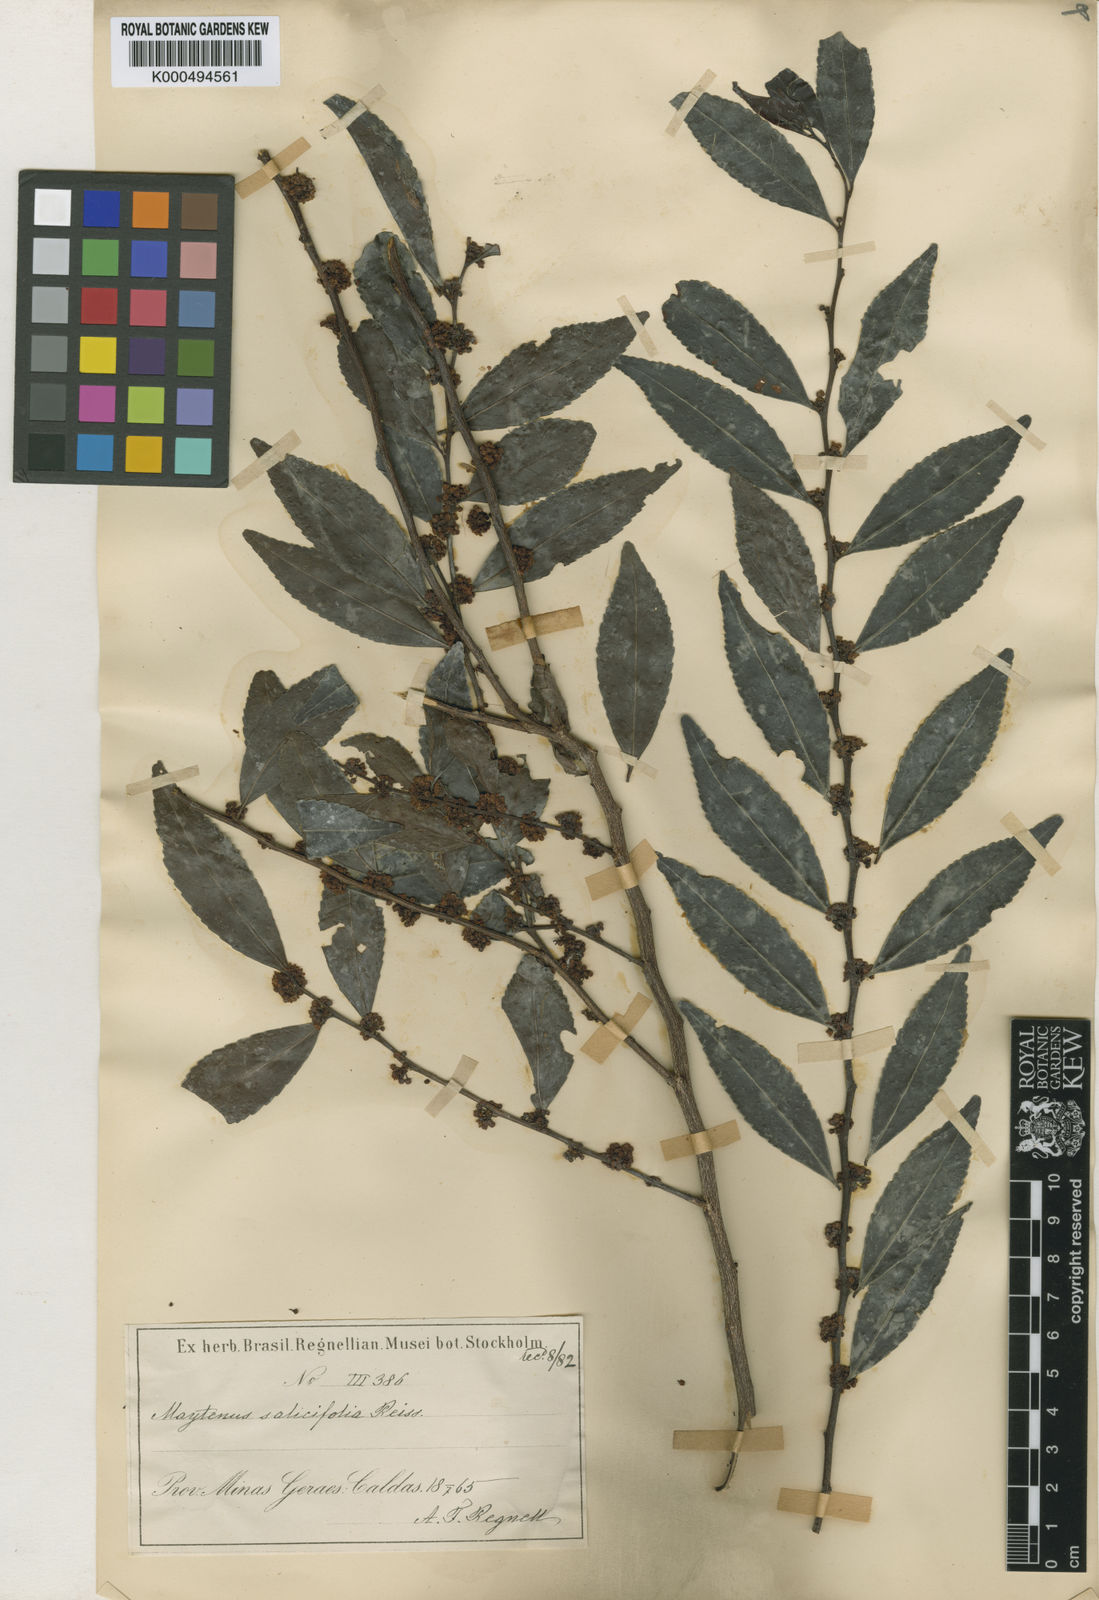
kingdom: Plantae
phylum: Tracheophyta
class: Magnoliopsida
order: Celastrales
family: Celastraceae
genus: Maytenus
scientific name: Maytenus salicifolia
